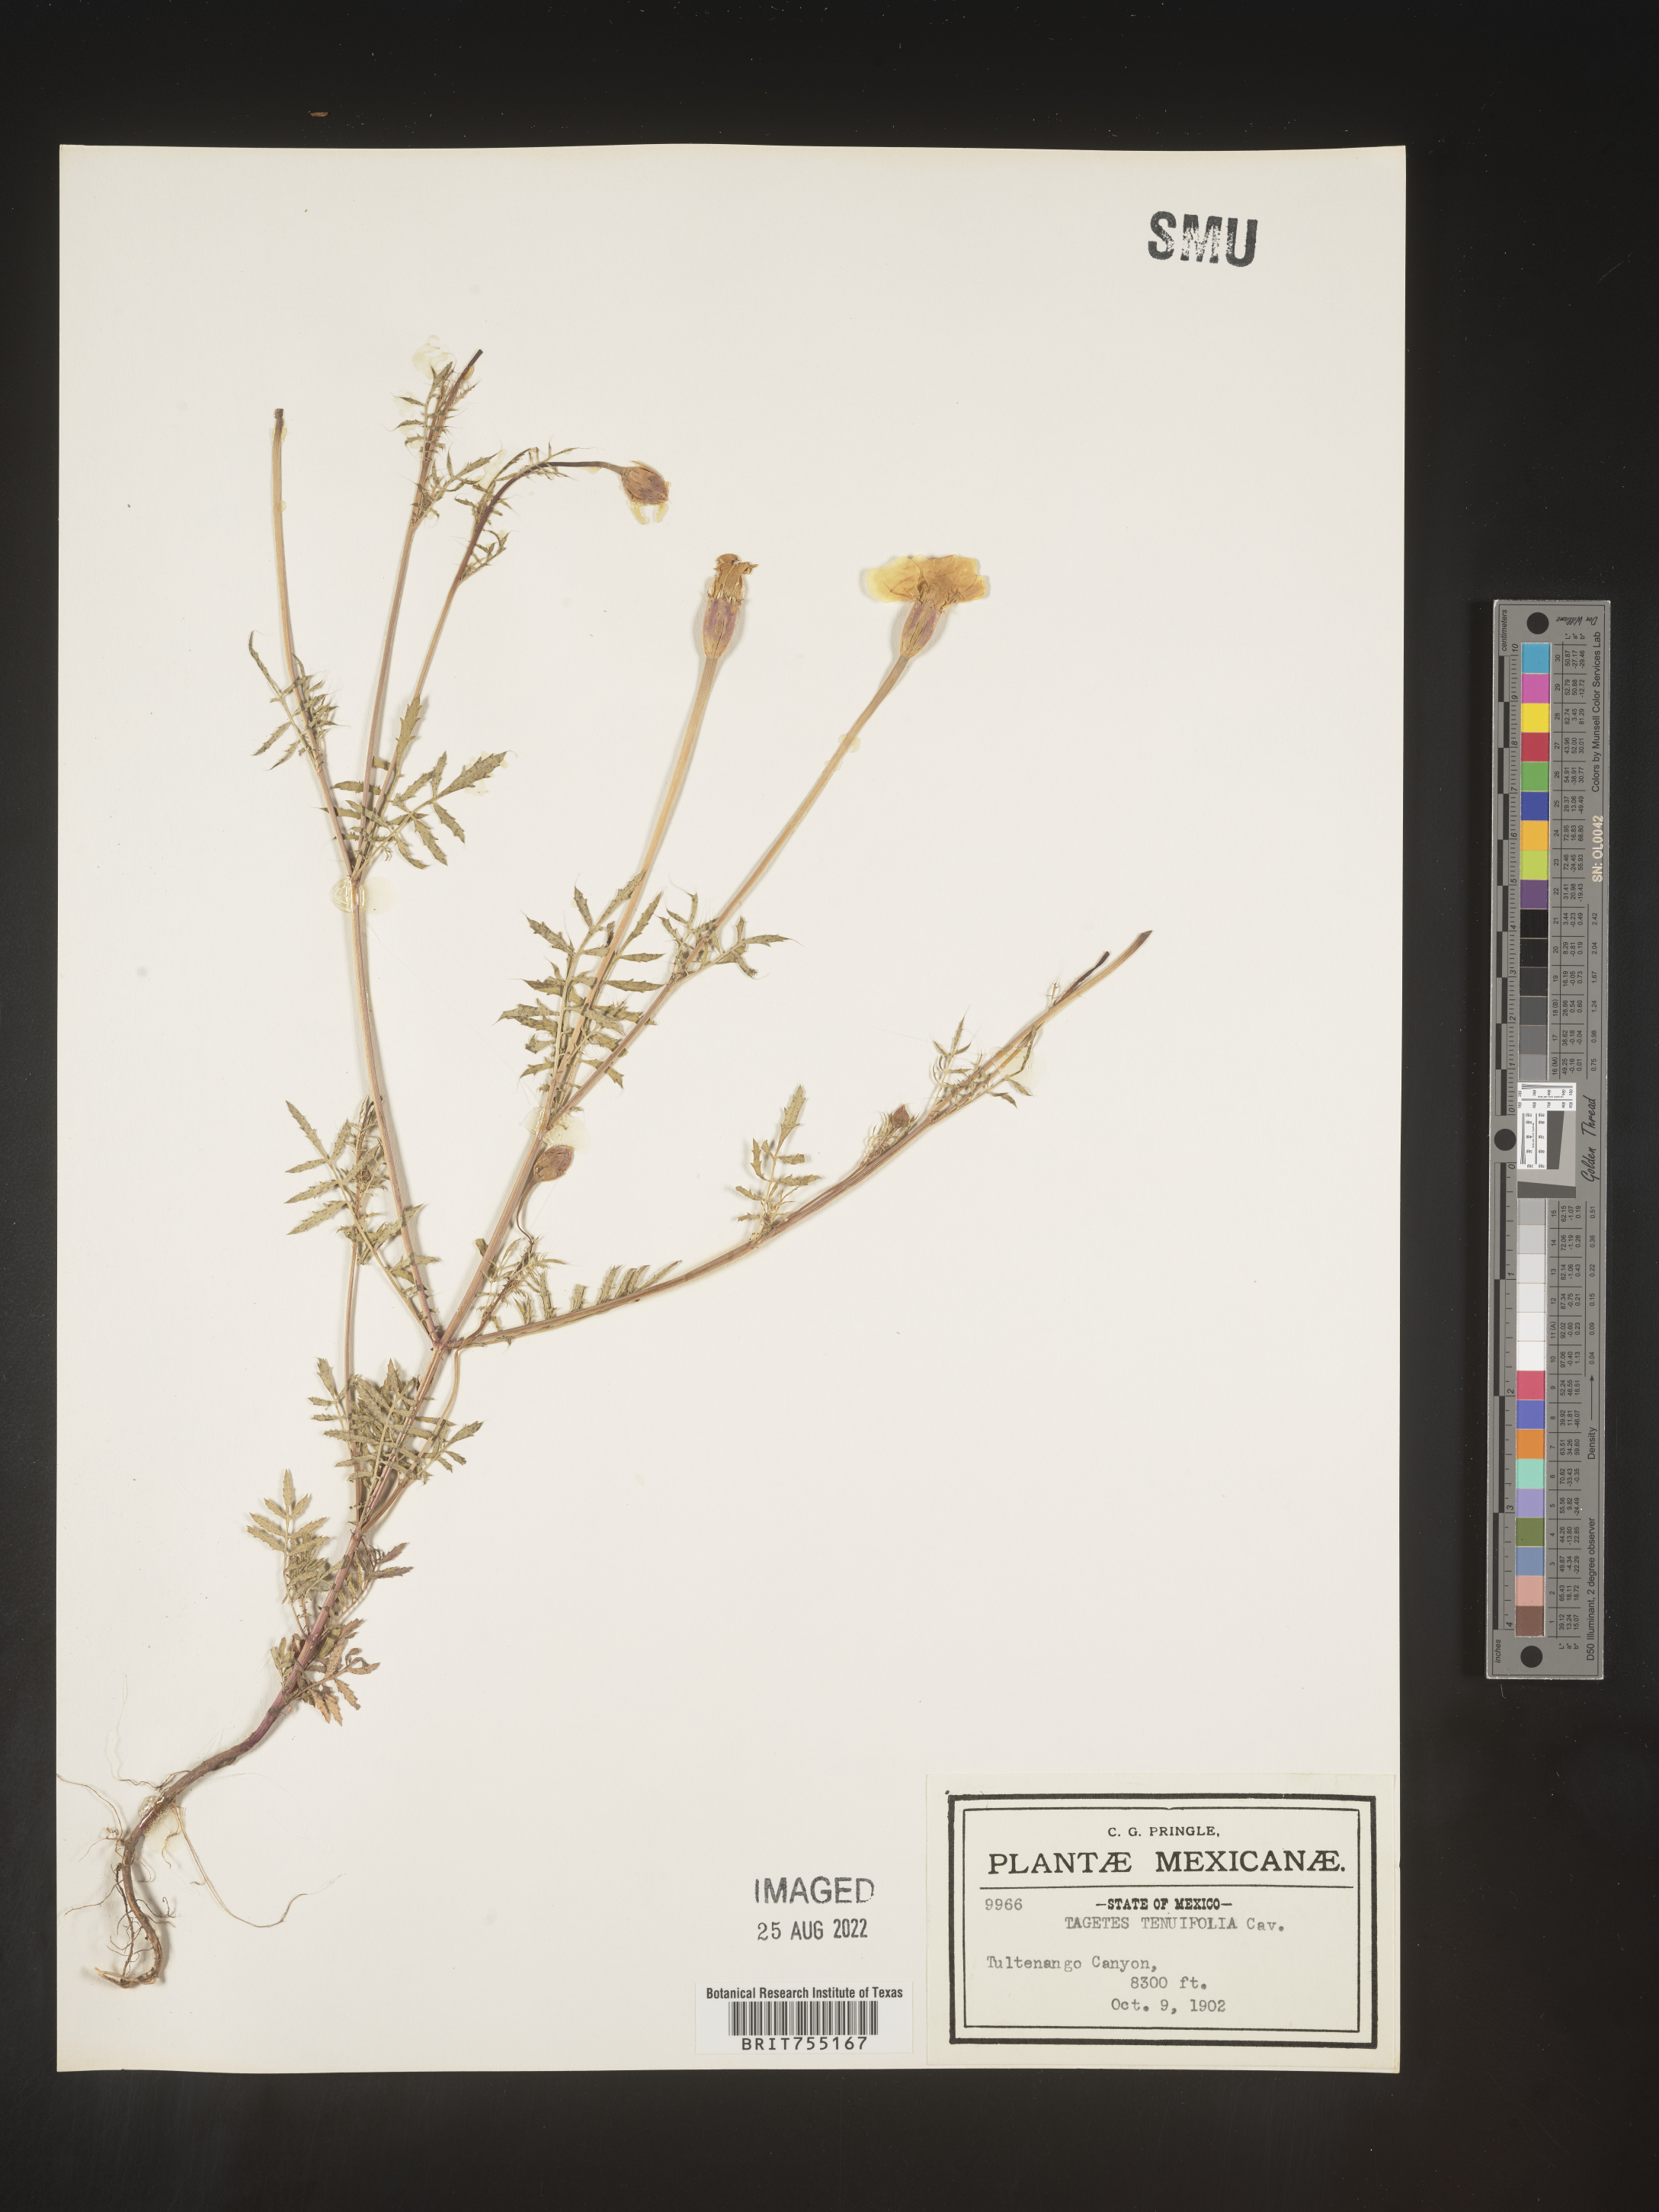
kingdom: Plantae
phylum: Tracheophyta
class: Magnoliopsida
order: Asterales
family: Asteraceae
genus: Tagetes
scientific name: Tagetes
